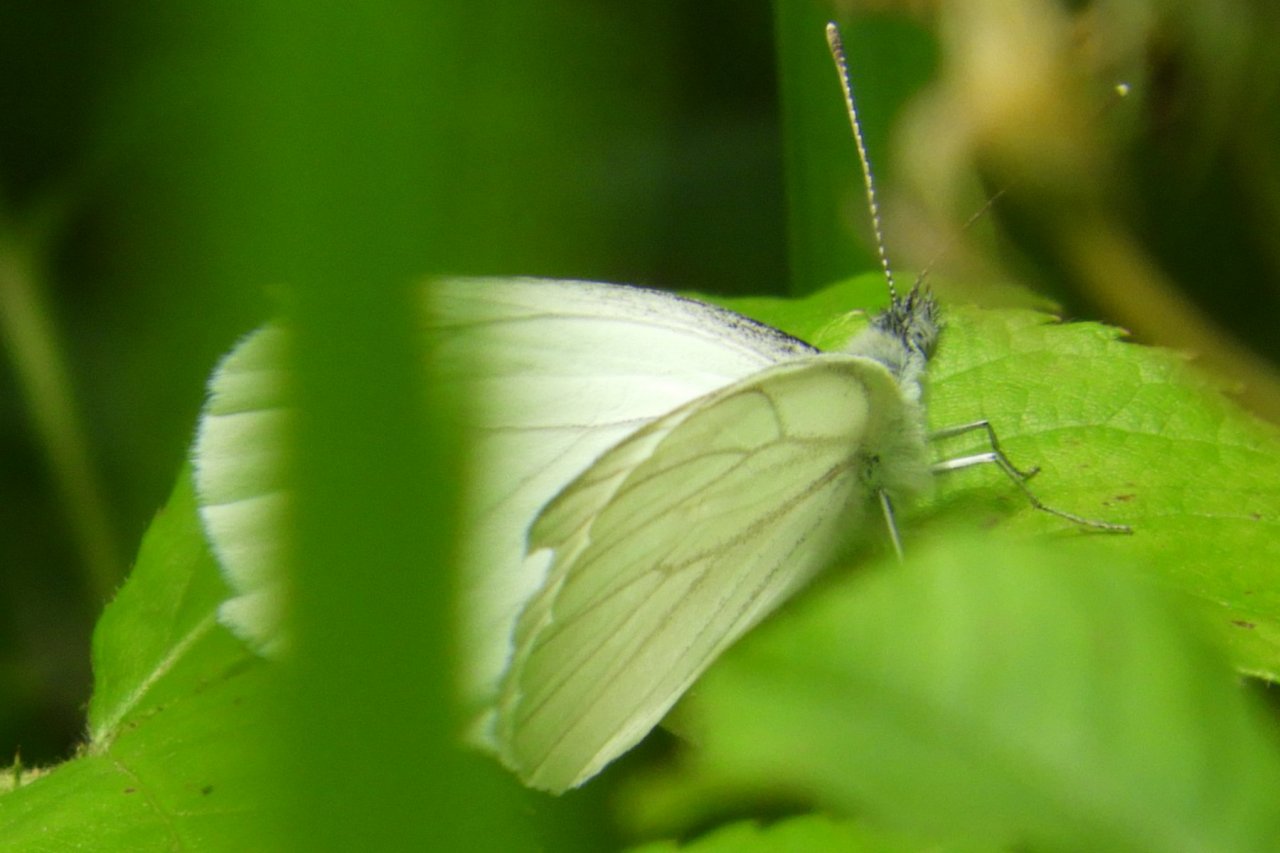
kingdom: Animalia
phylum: Arthropoda
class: Insecta
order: Lepidoptera
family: Pieridae
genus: Pieris
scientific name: Pieris oleracea
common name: Mustard White
